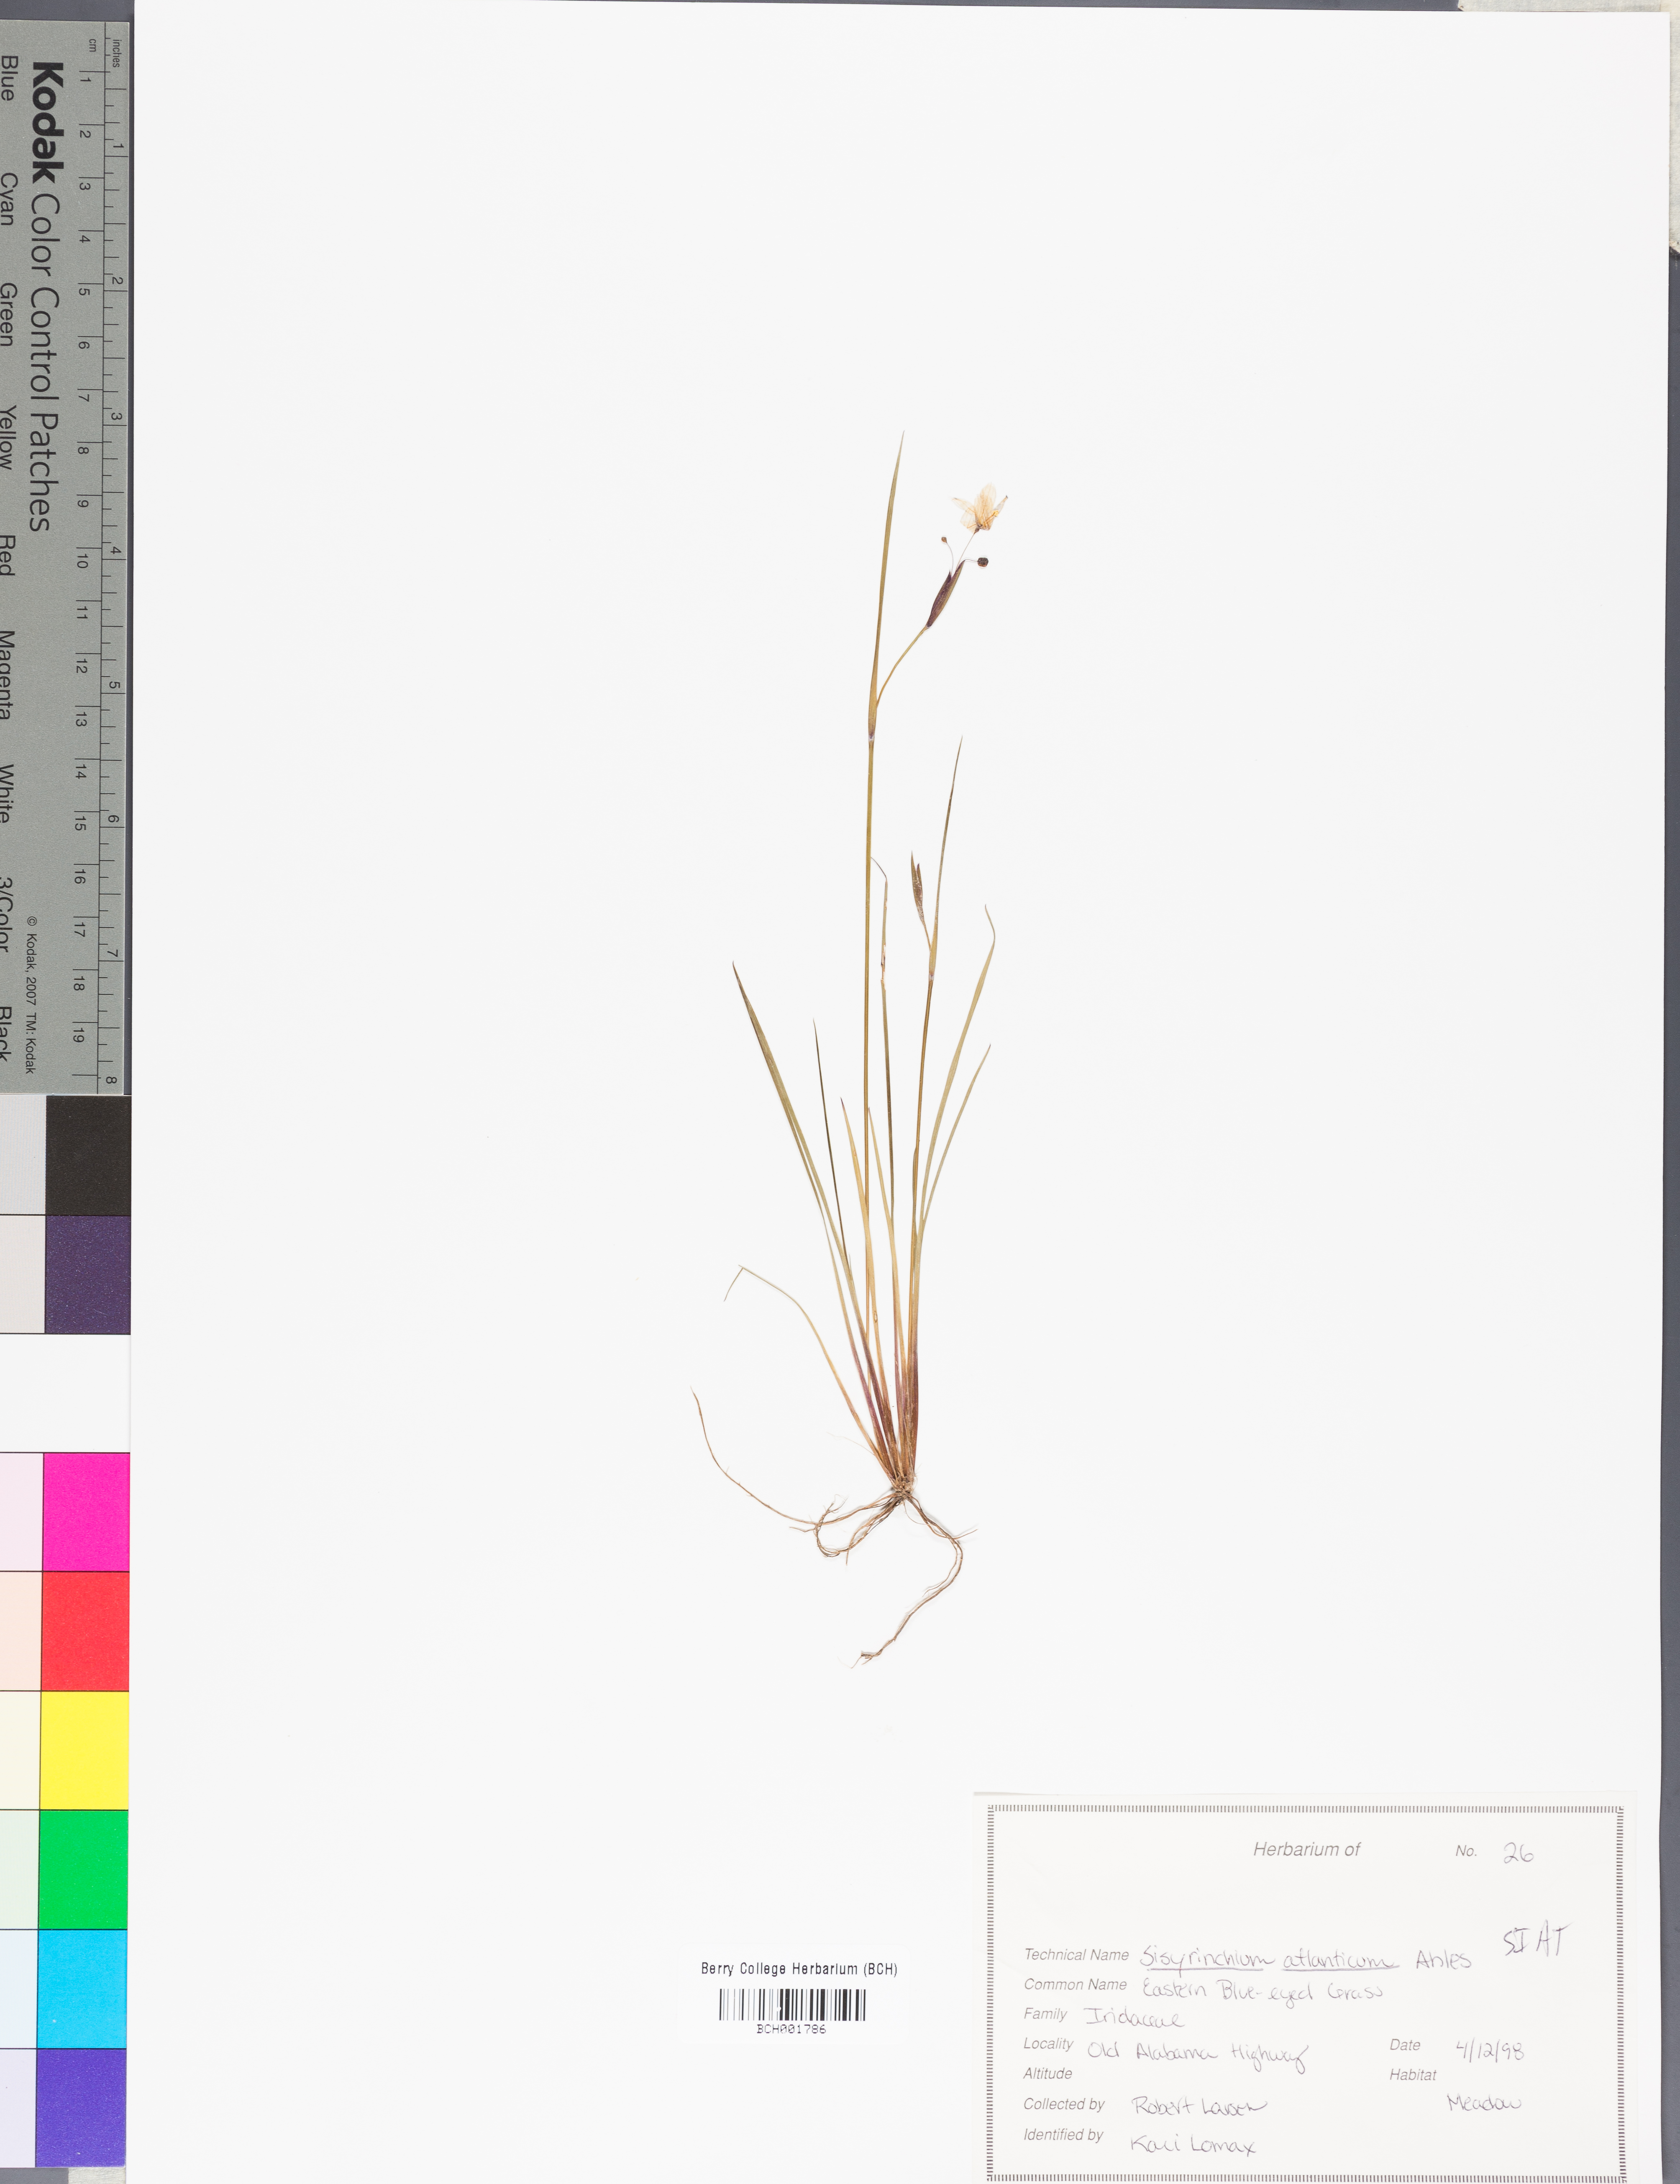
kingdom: Plantae
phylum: Tracheophyta
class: Liliopsida
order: Asparagales
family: Iridaceae
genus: Sisyrinchium
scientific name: Sisyrinchium atlanticum
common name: Eastern blue-eyed-grass
